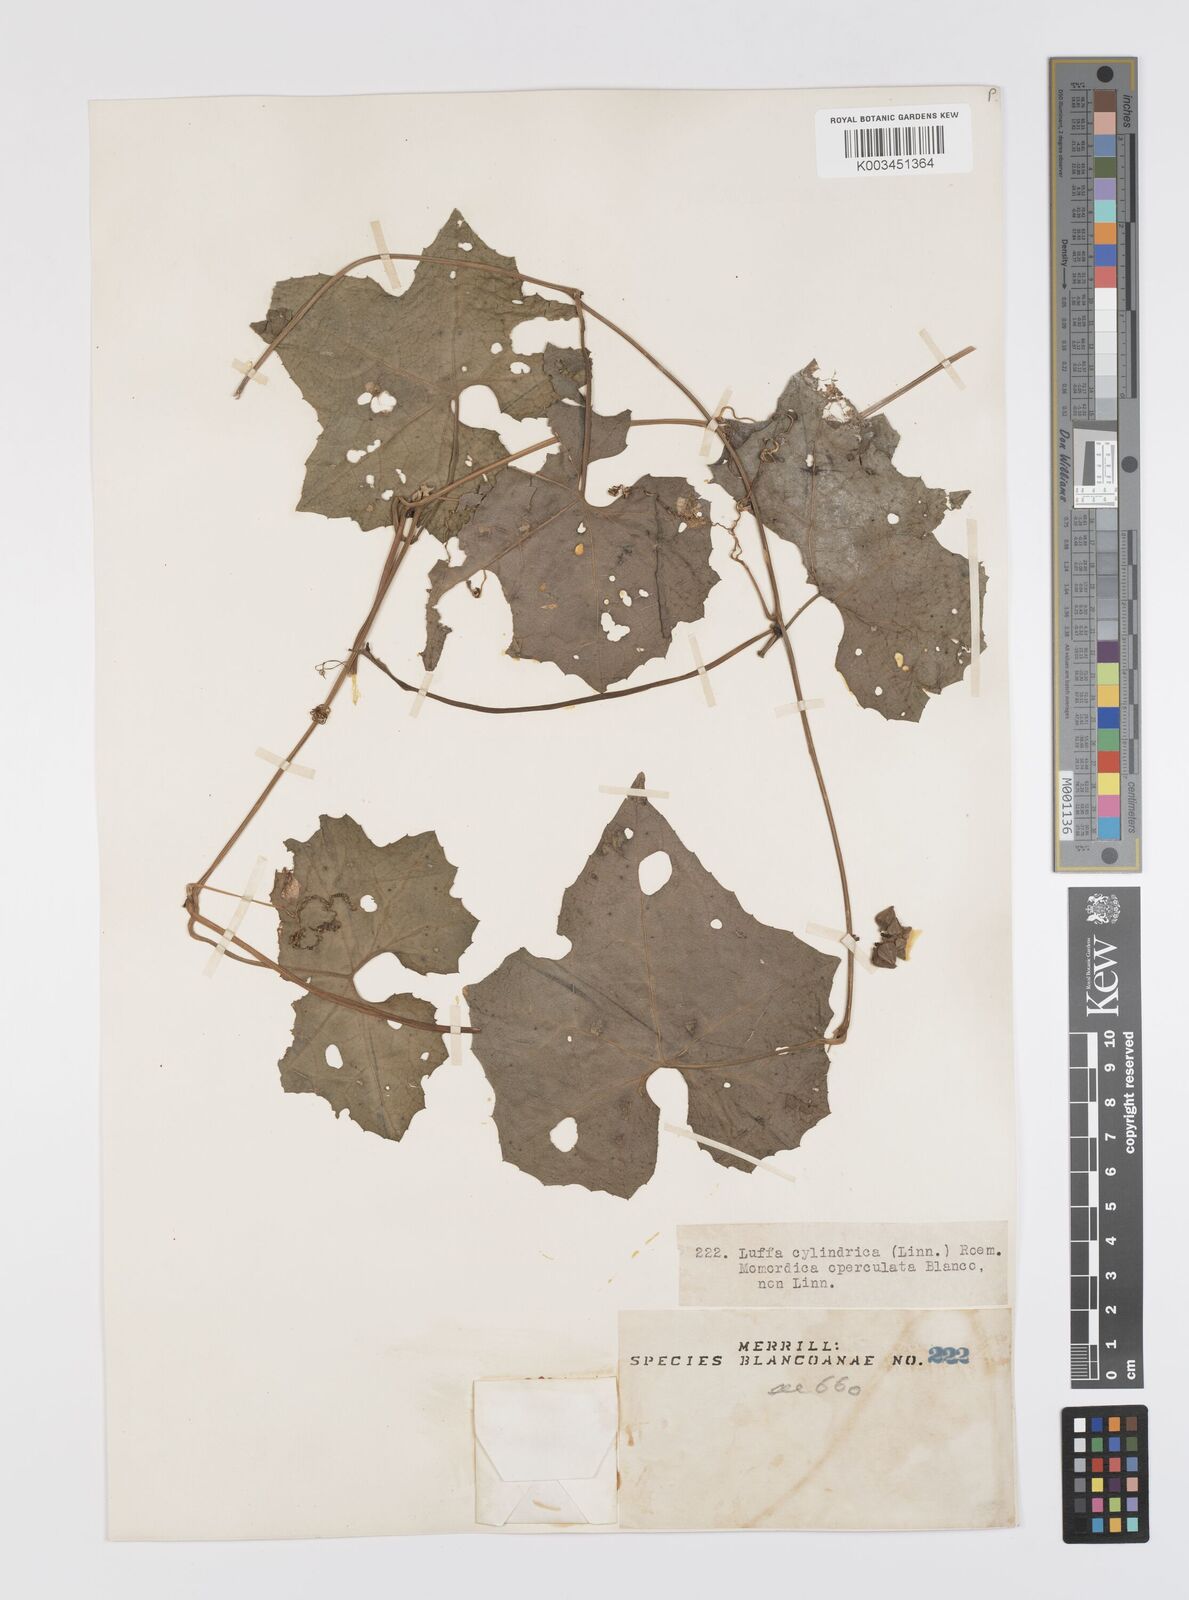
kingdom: Plantae
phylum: Tracheophyta
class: Magnoliopsida
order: Cucurbitales
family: Cucurbitaceae
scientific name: Cucurbitaceae
